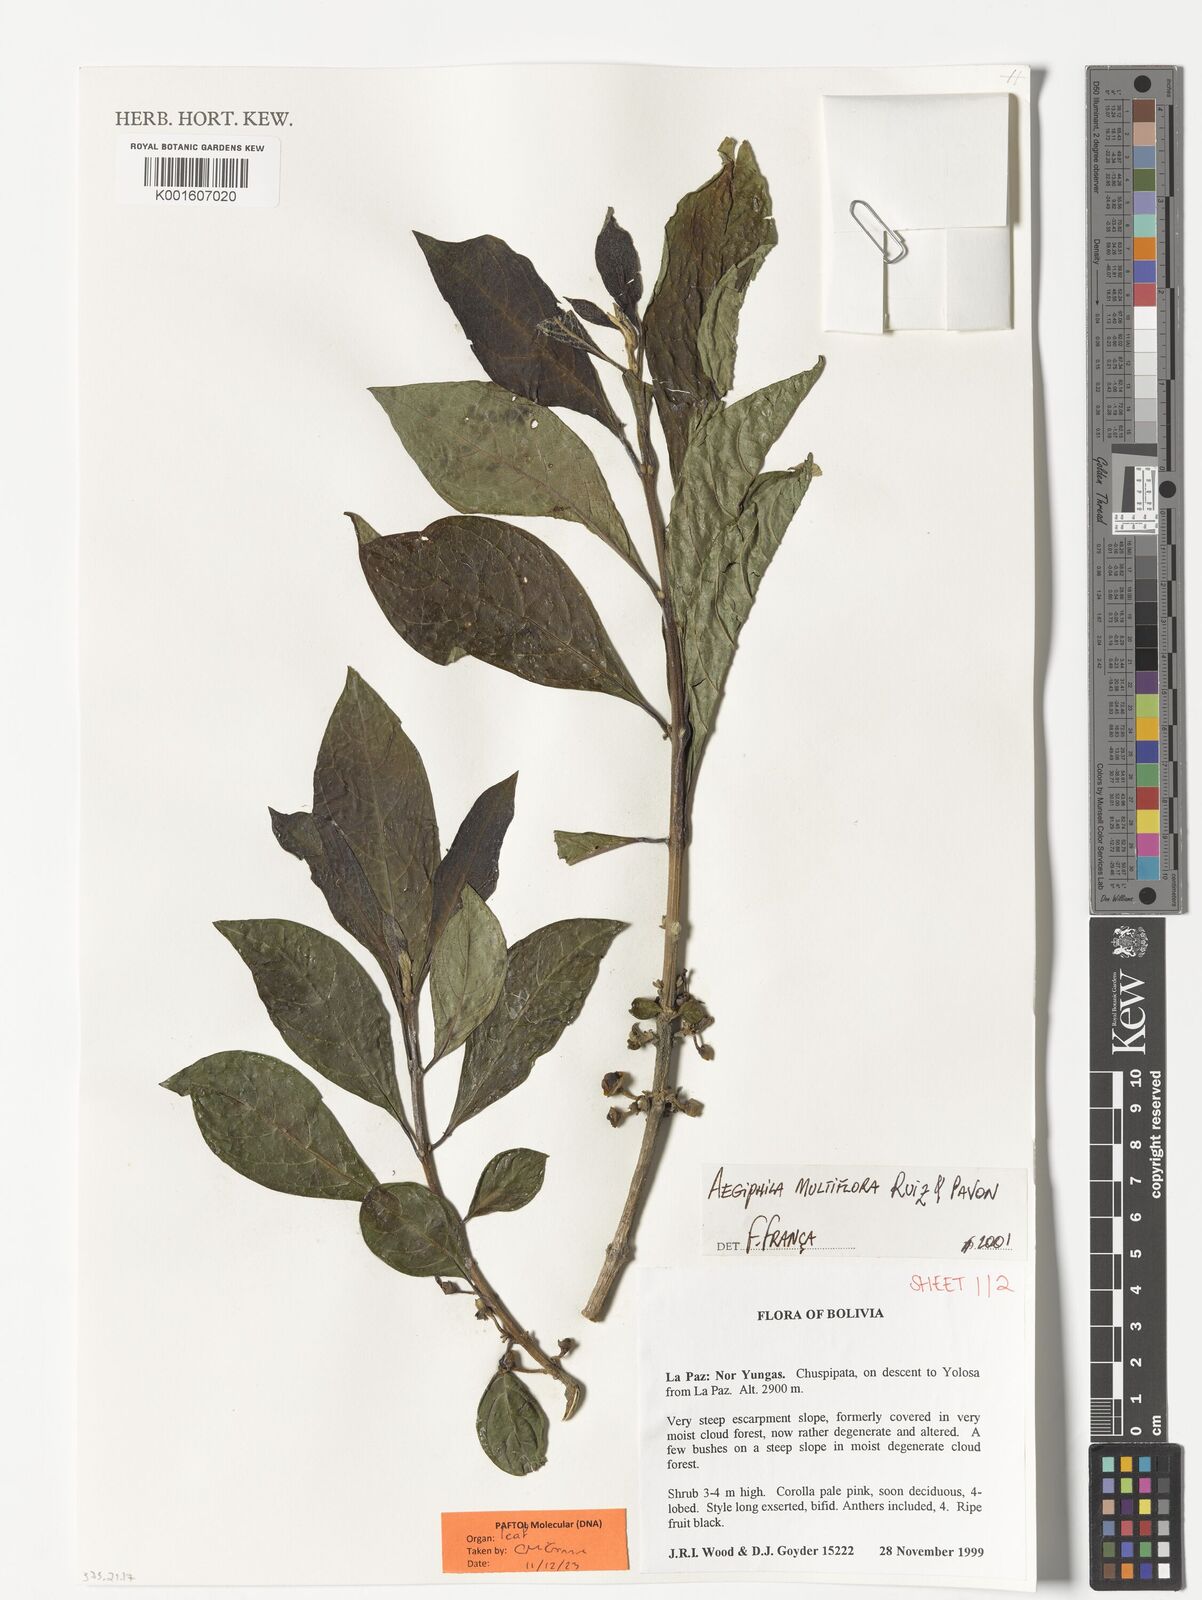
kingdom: Plantae
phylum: Tracheophyta
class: Magnoliopsida
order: Lamiales
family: Lamiaceae
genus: Aegiphila
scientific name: Aegiphila multiflora
